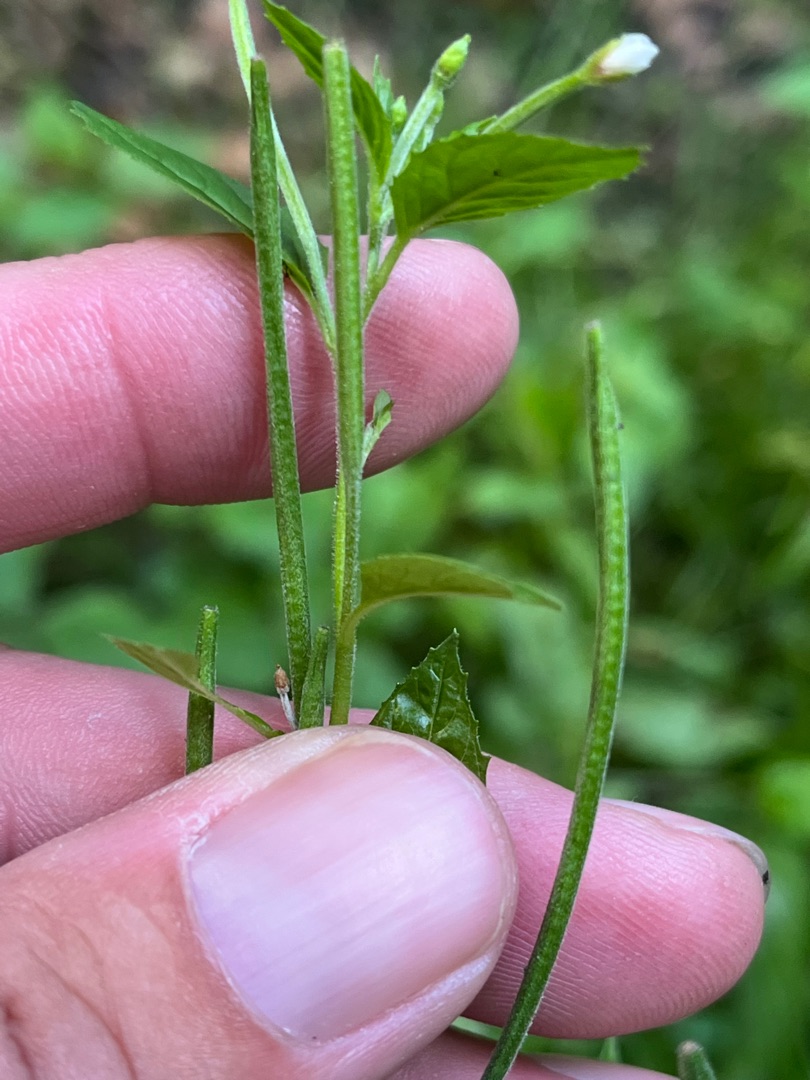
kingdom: Plantae
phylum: Tracheophyta
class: Magnoliopsida
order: Myrtales
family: Onagraceae
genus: Epilobium
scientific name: Epilobium roseum
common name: Rosen-dueurt
